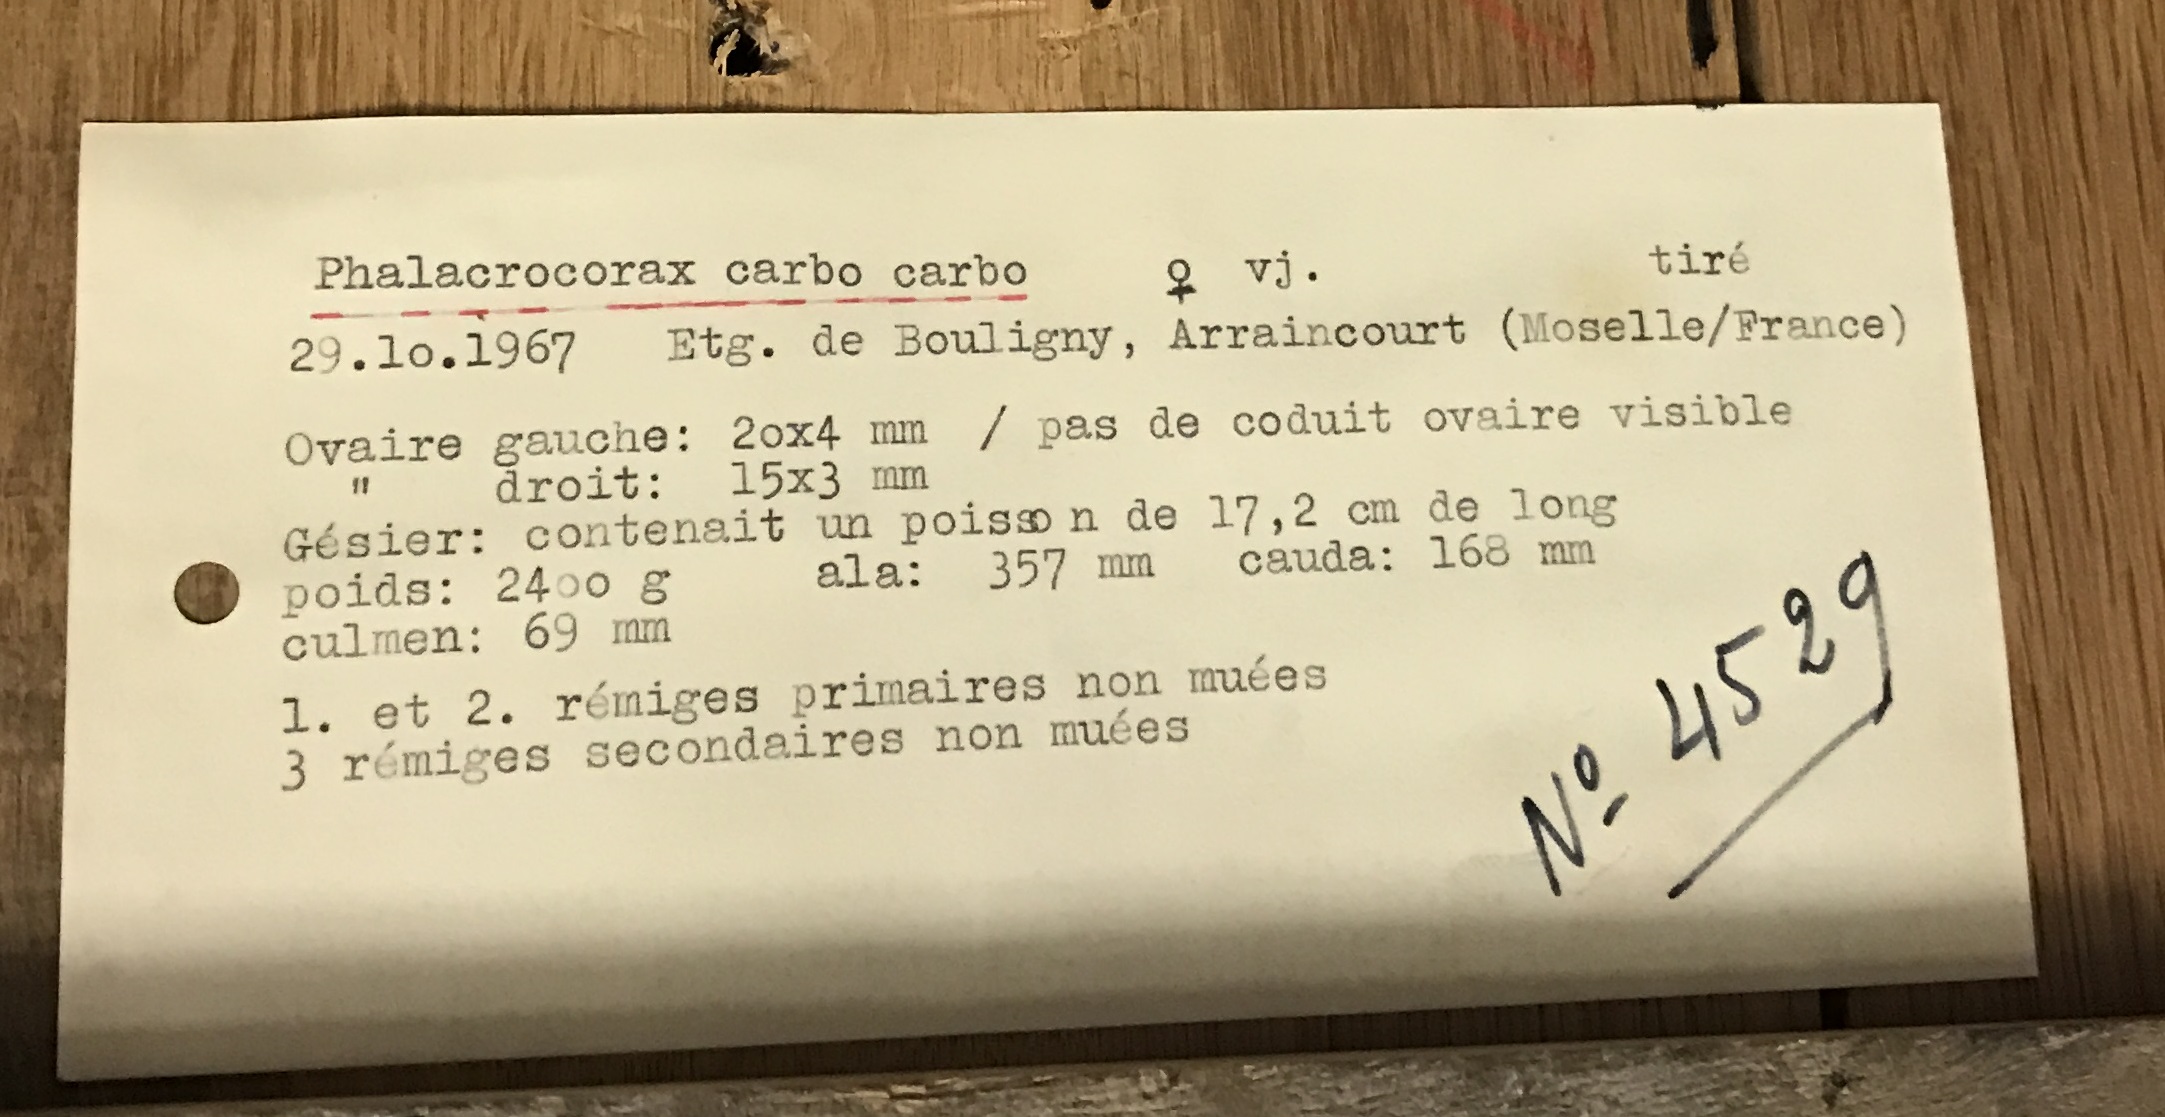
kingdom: Animalia
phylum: Chordata
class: Aves
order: Suliformes
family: Phalacrocoracidae
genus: Phalacrocorax
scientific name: Phalacrocorax carbo
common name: Great cormorant
